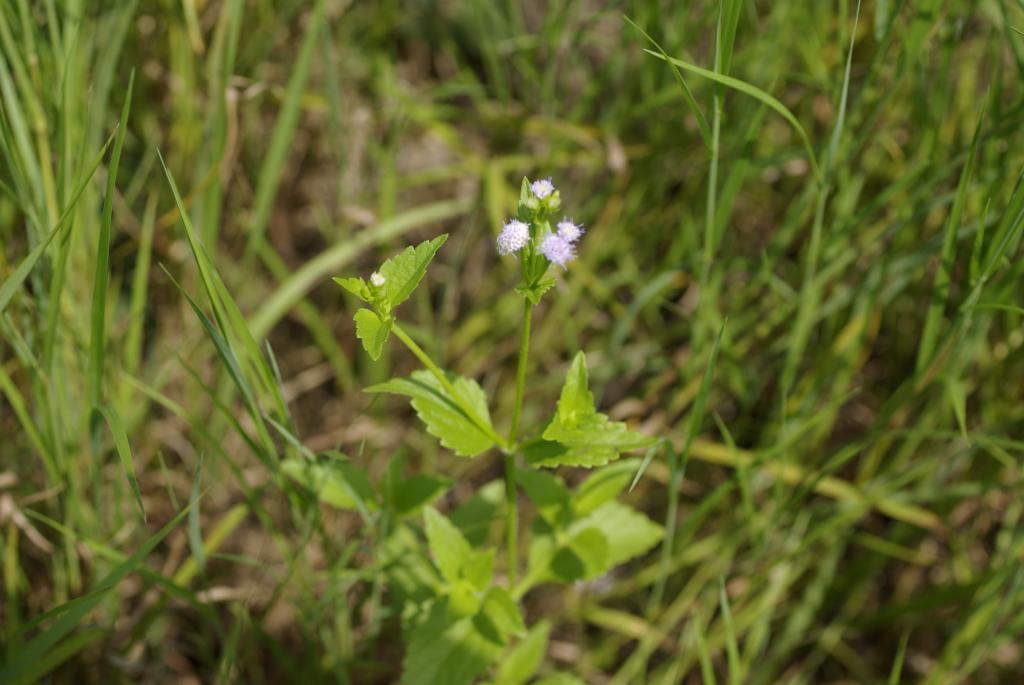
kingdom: Plantae
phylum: Tracheophyta
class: Magnoliopsida
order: Asterales
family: Asteraceae
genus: Praxelis
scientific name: Praxelis clematidea
